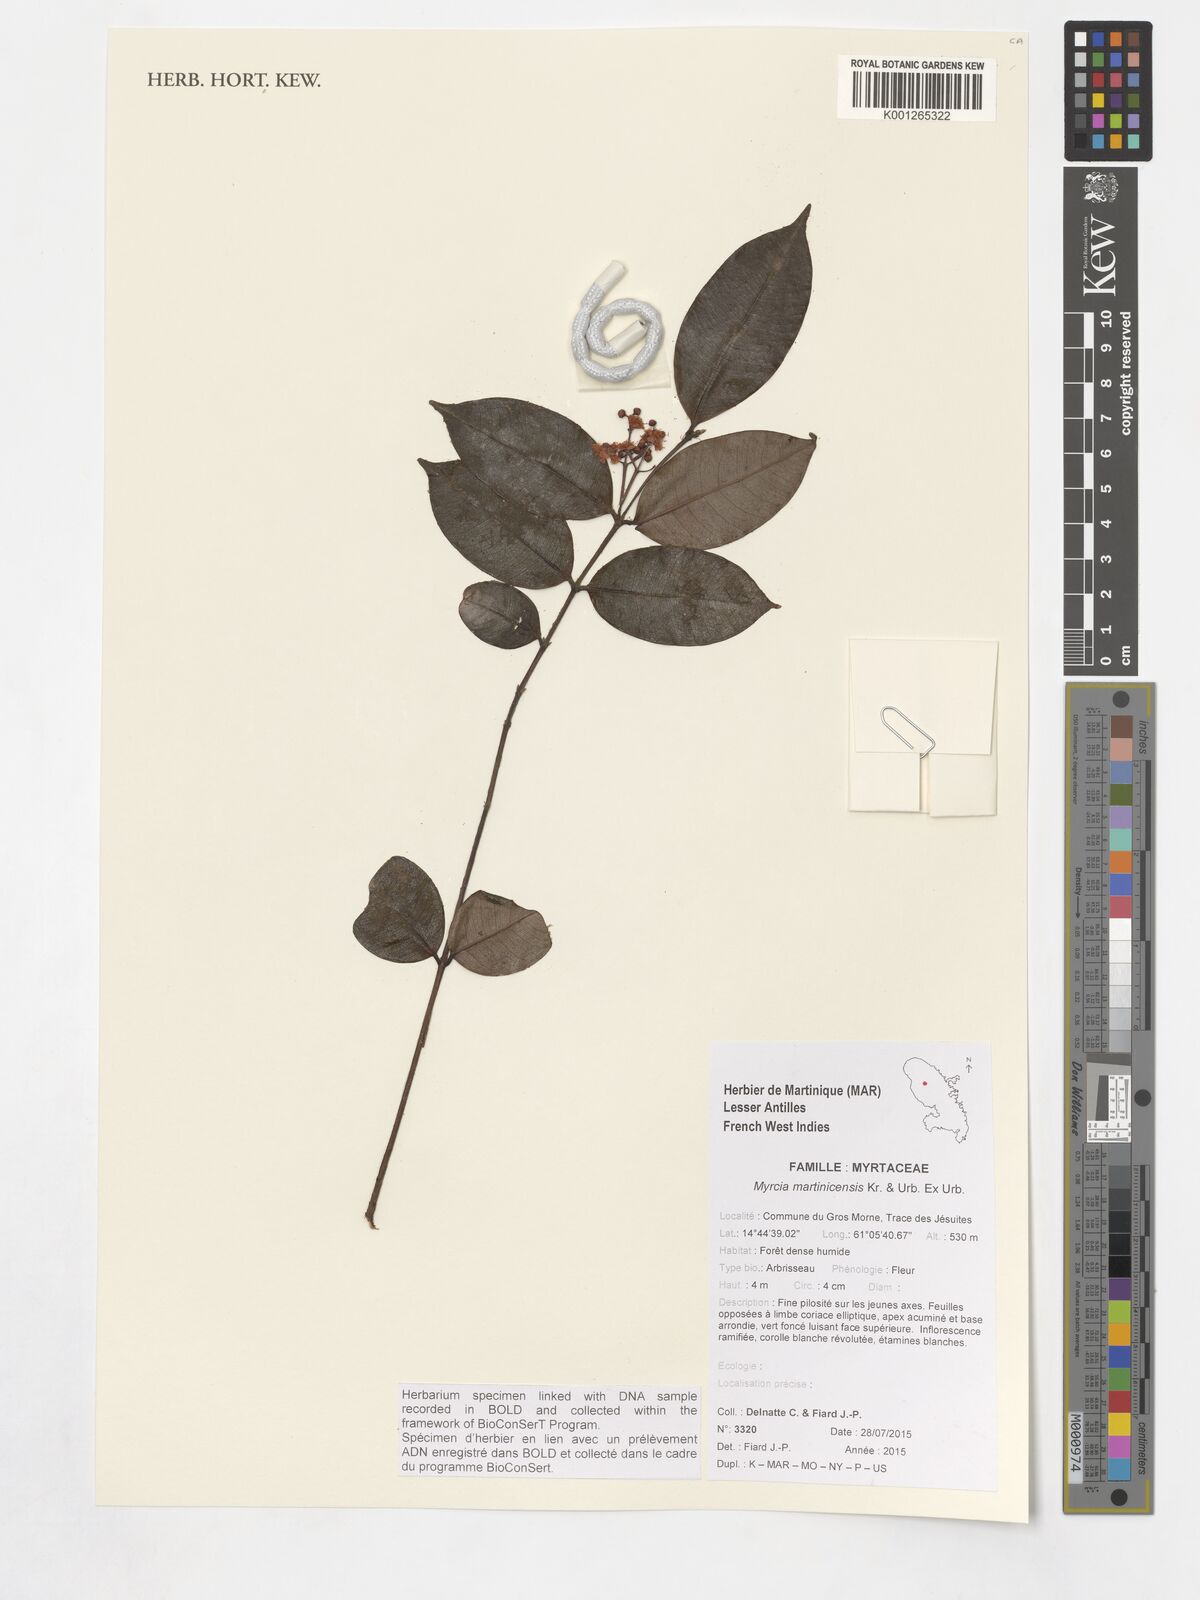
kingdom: Plantae
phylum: Tracheophyta
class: Magnoliopsida
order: Myrtales
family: Myrtaceae
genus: Myrcia
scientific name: Myrcia splendens
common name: Surinam cherry
